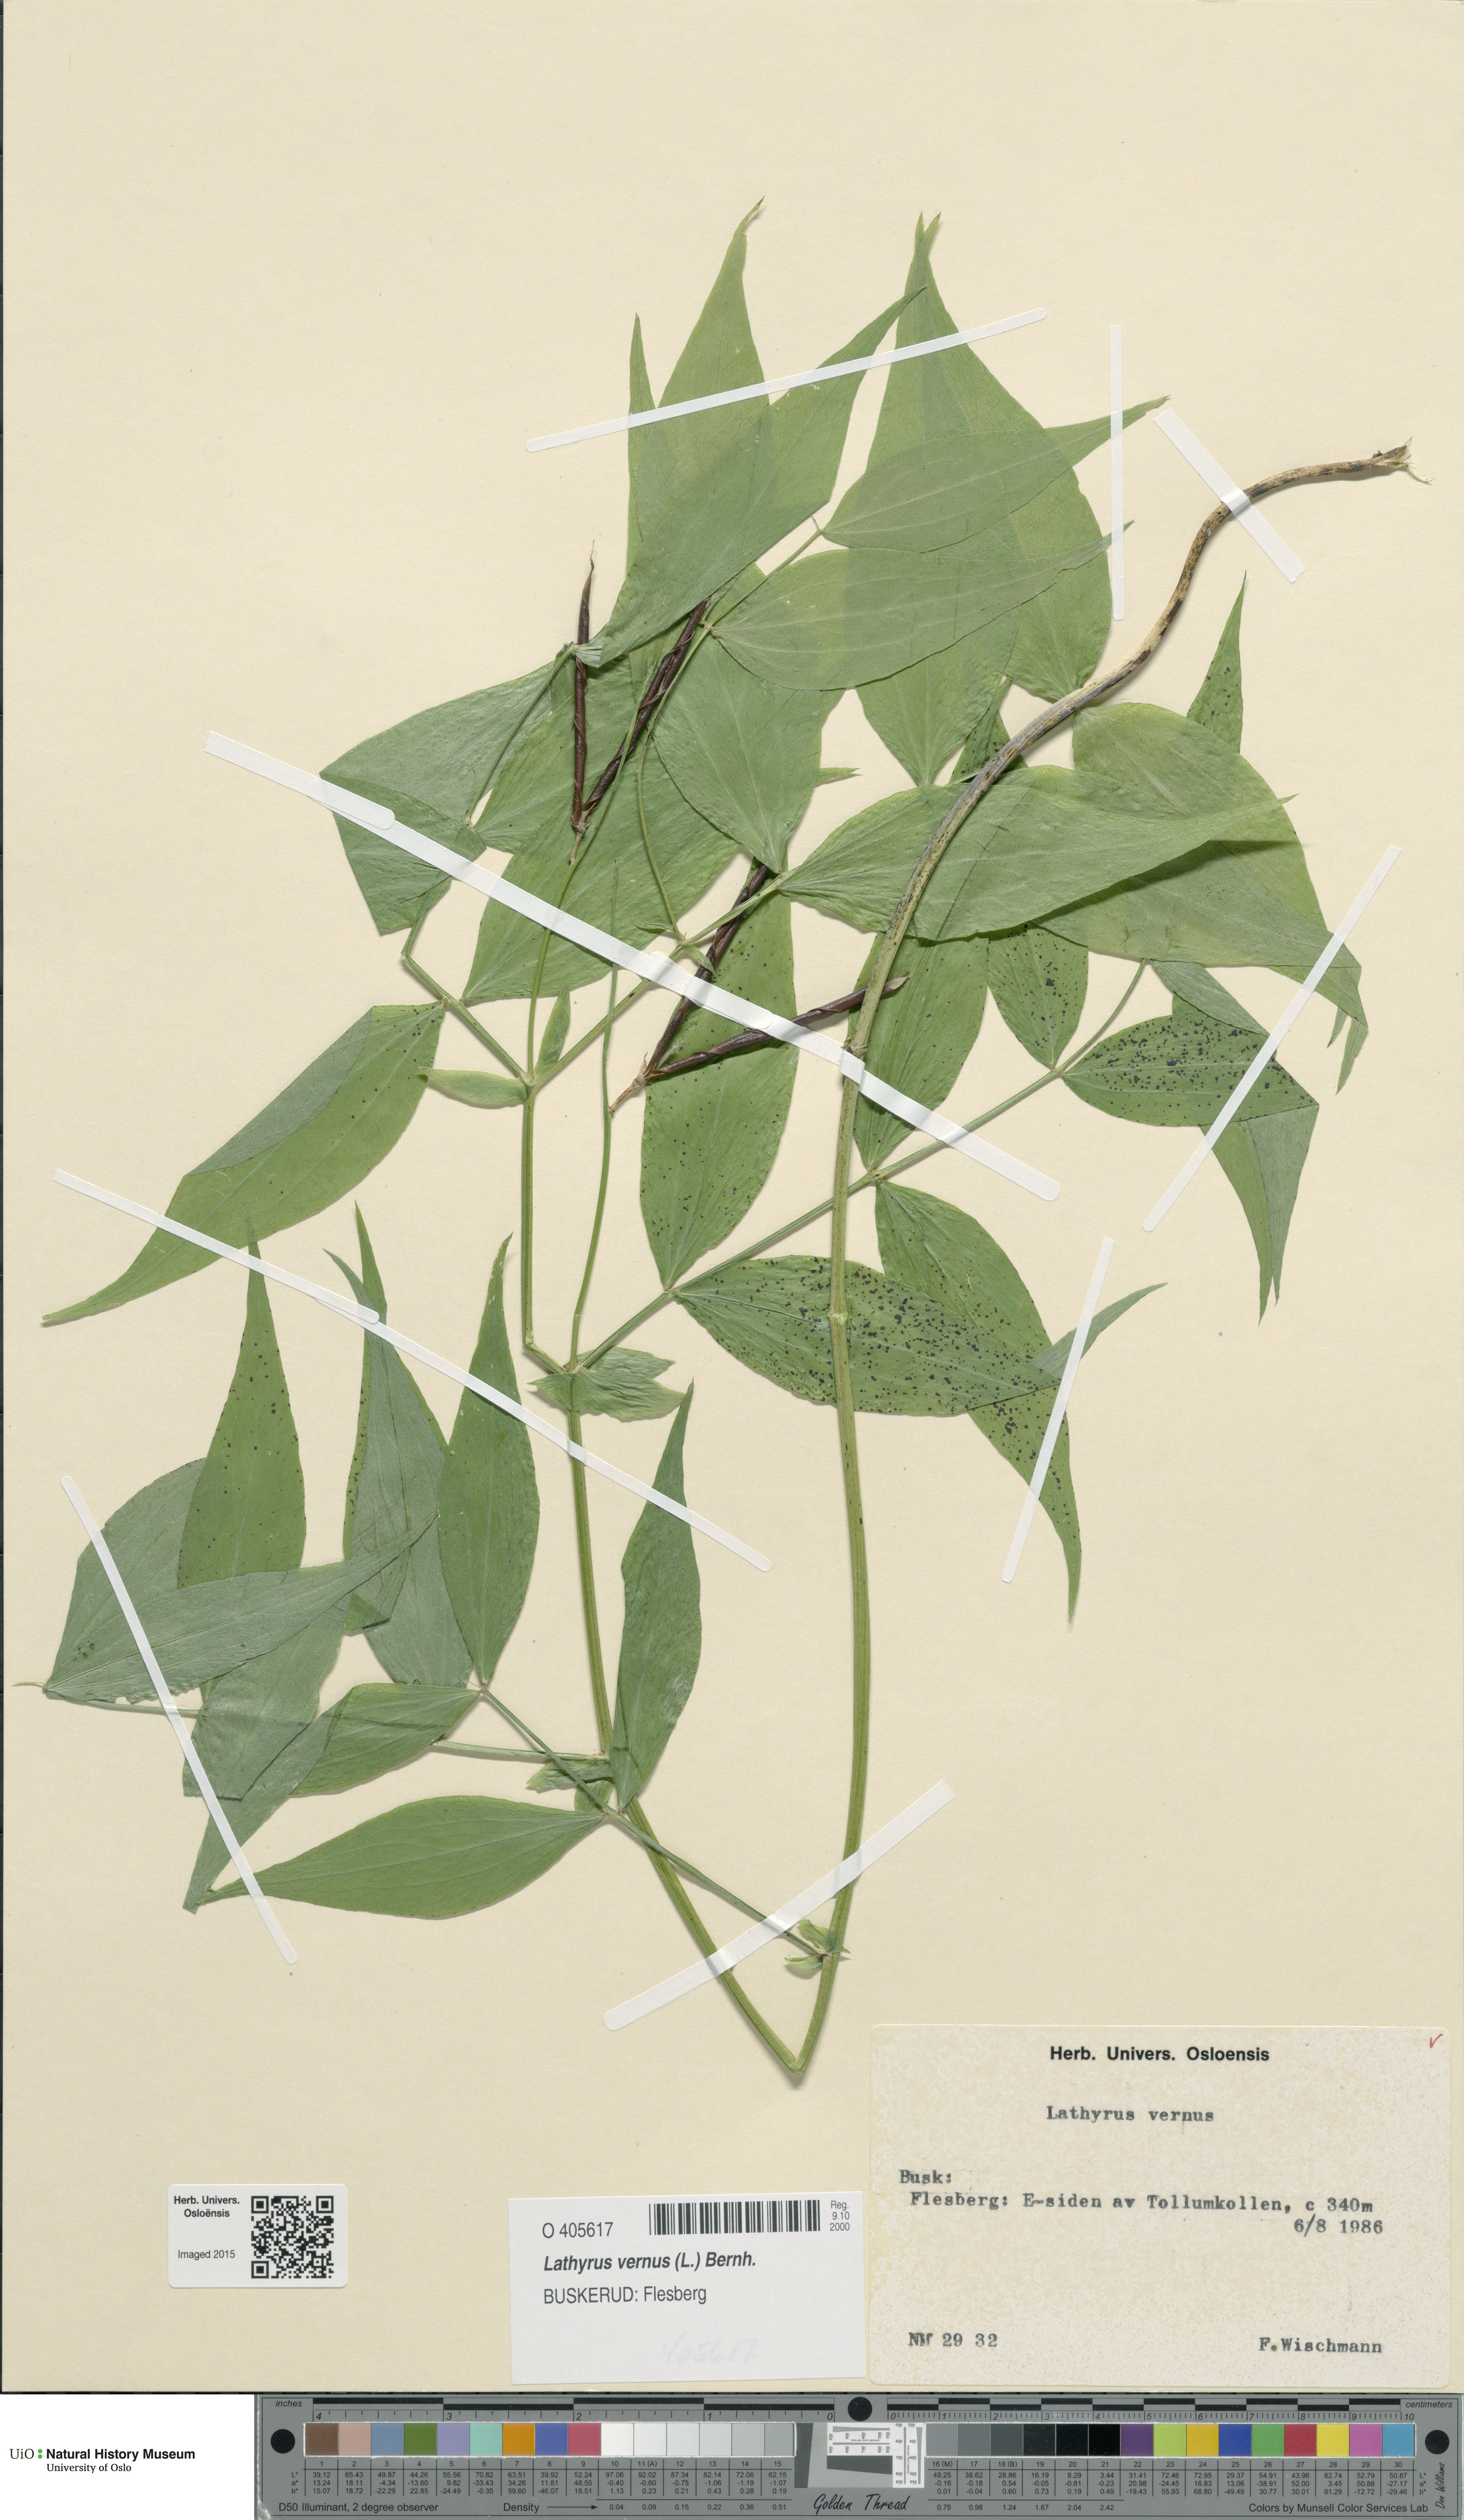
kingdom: Plantae
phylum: Tracheophyta
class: Magnoliopsida
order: Fabales
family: Fabaceae
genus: Lathyrus
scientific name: Lathyrus vernus
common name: Spring pea
